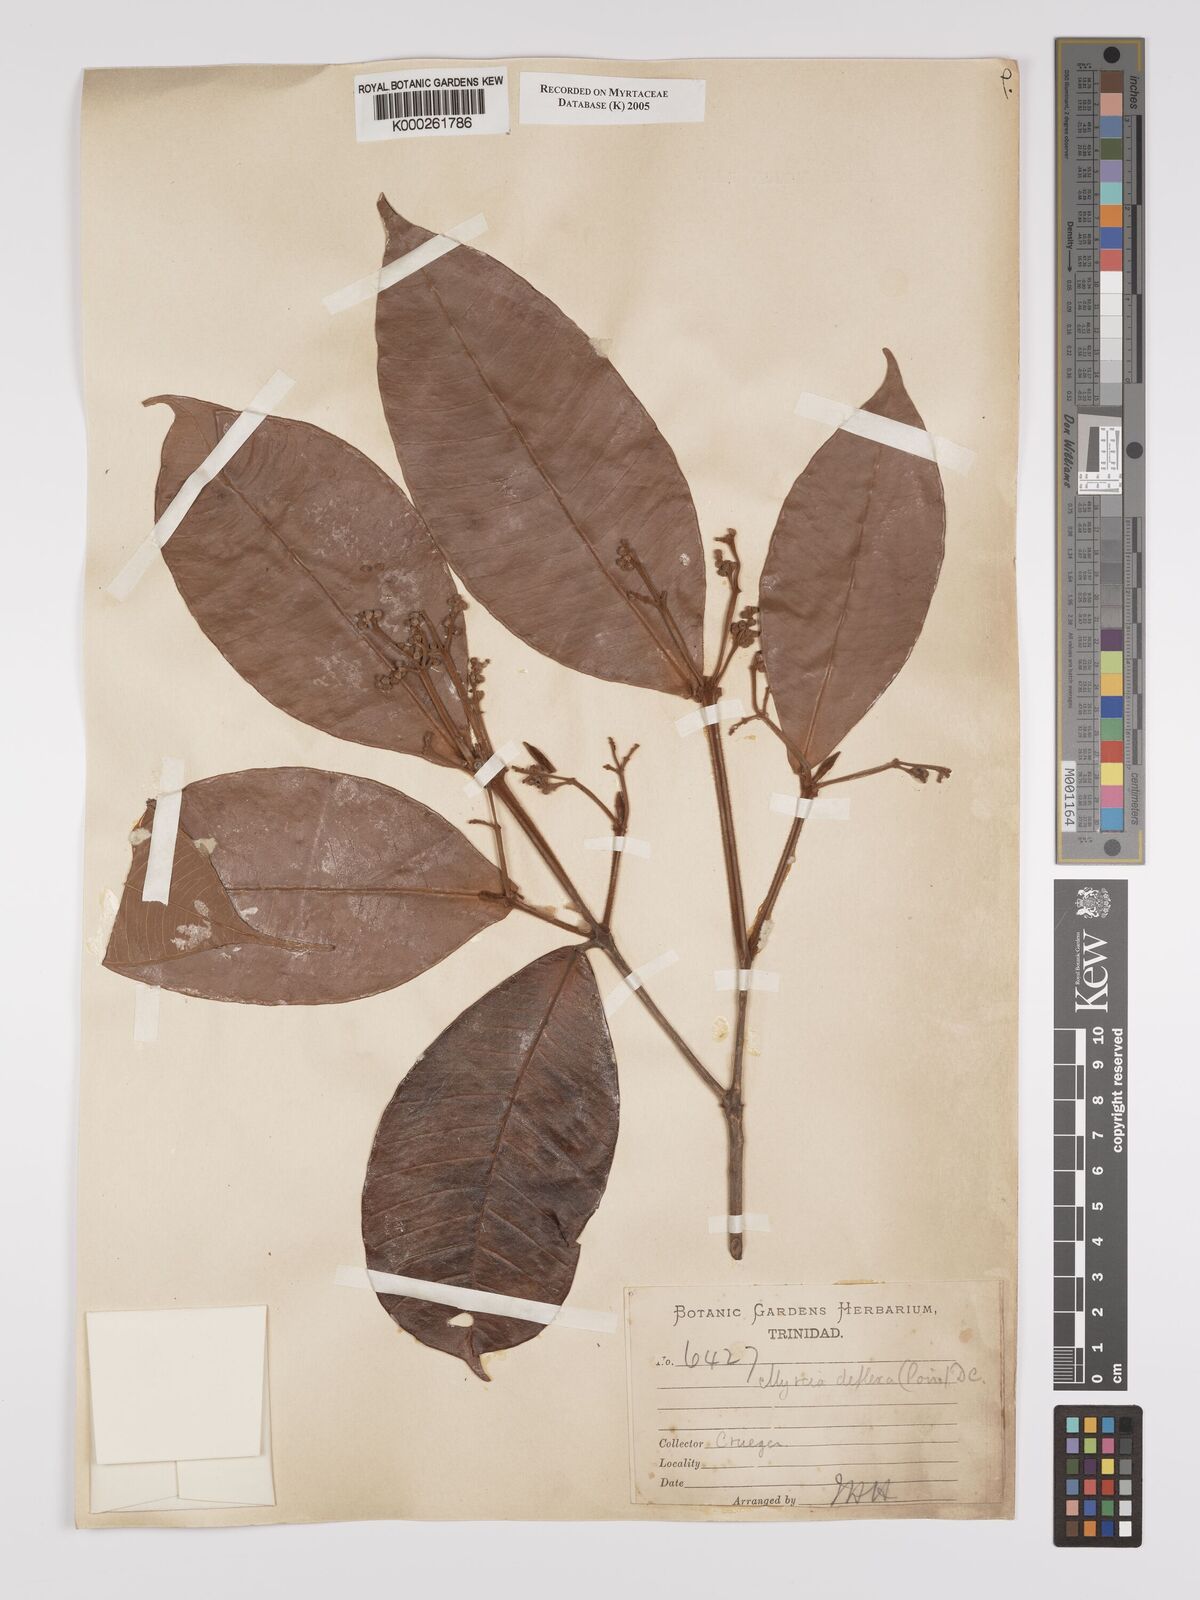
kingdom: Plantae
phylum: Tracheophyta
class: Magnoliopsida
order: Myrtales
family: Myrtaceae
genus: Myrcia
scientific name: Myrcia deflexa
